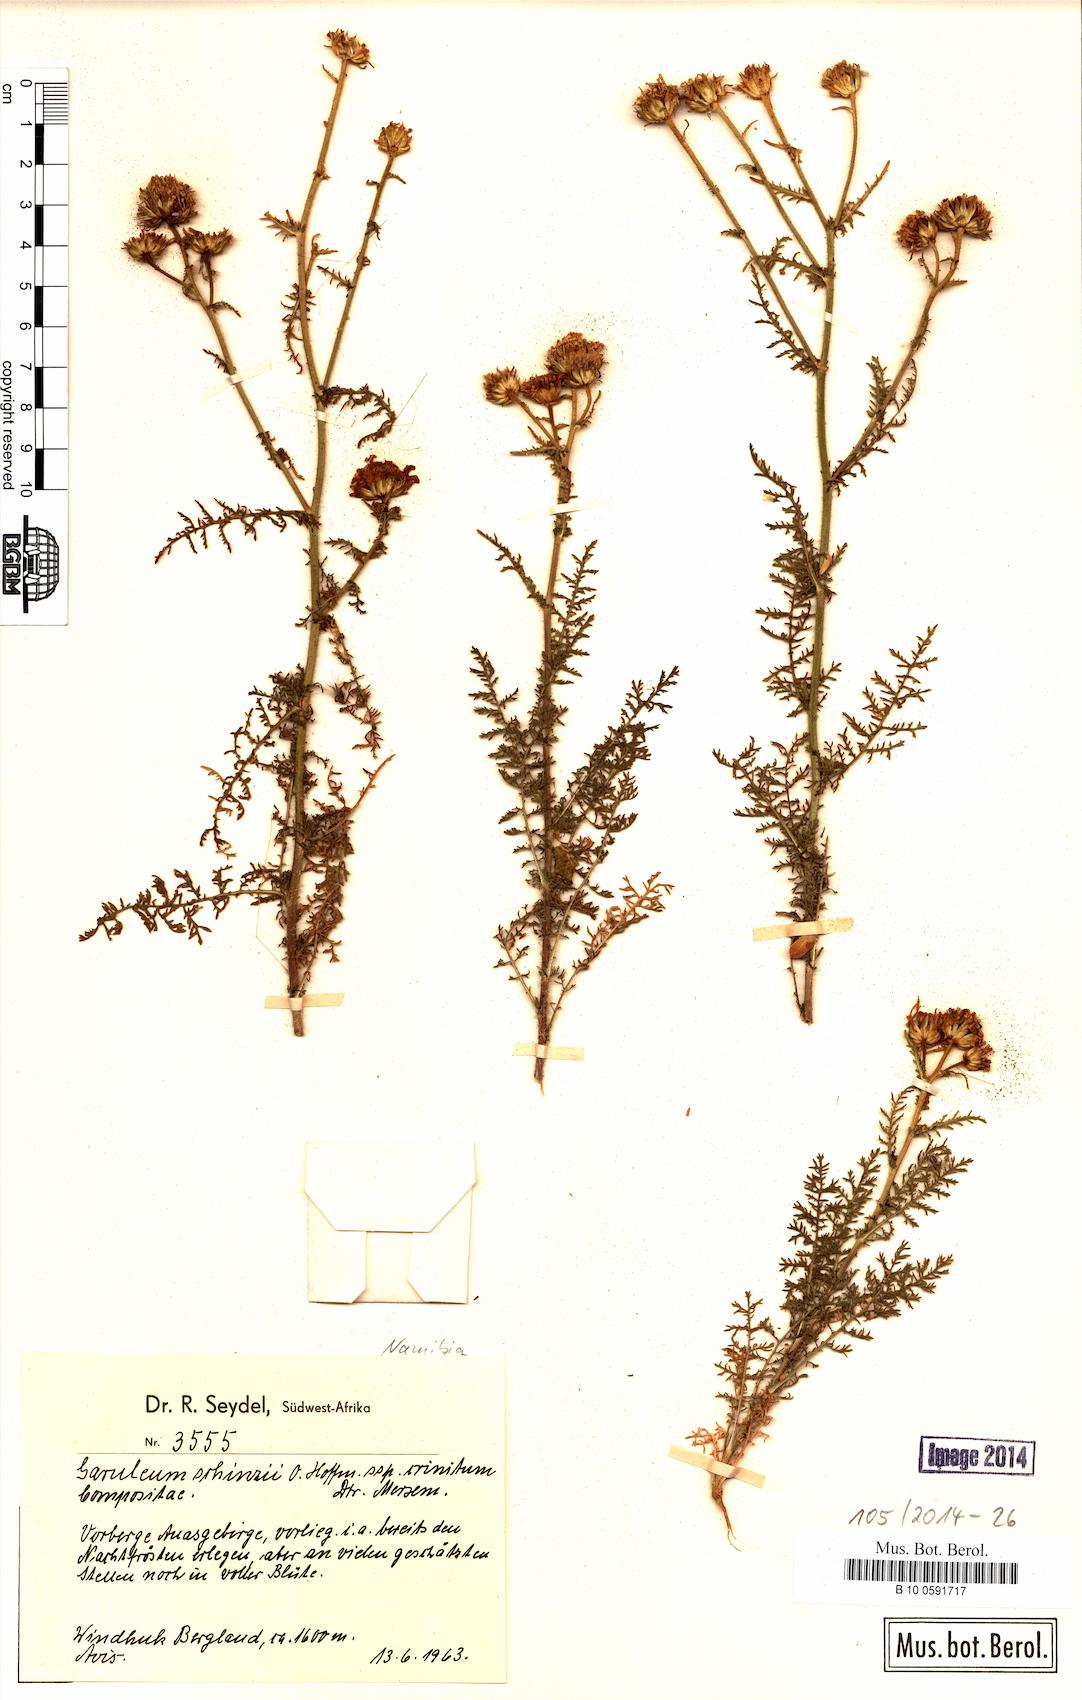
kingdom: Plantae
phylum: Tracheophyta
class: Magnoliopsida
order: Asterales
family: Asteraceae
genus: Garuleum
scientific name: Garuleum schinzii
